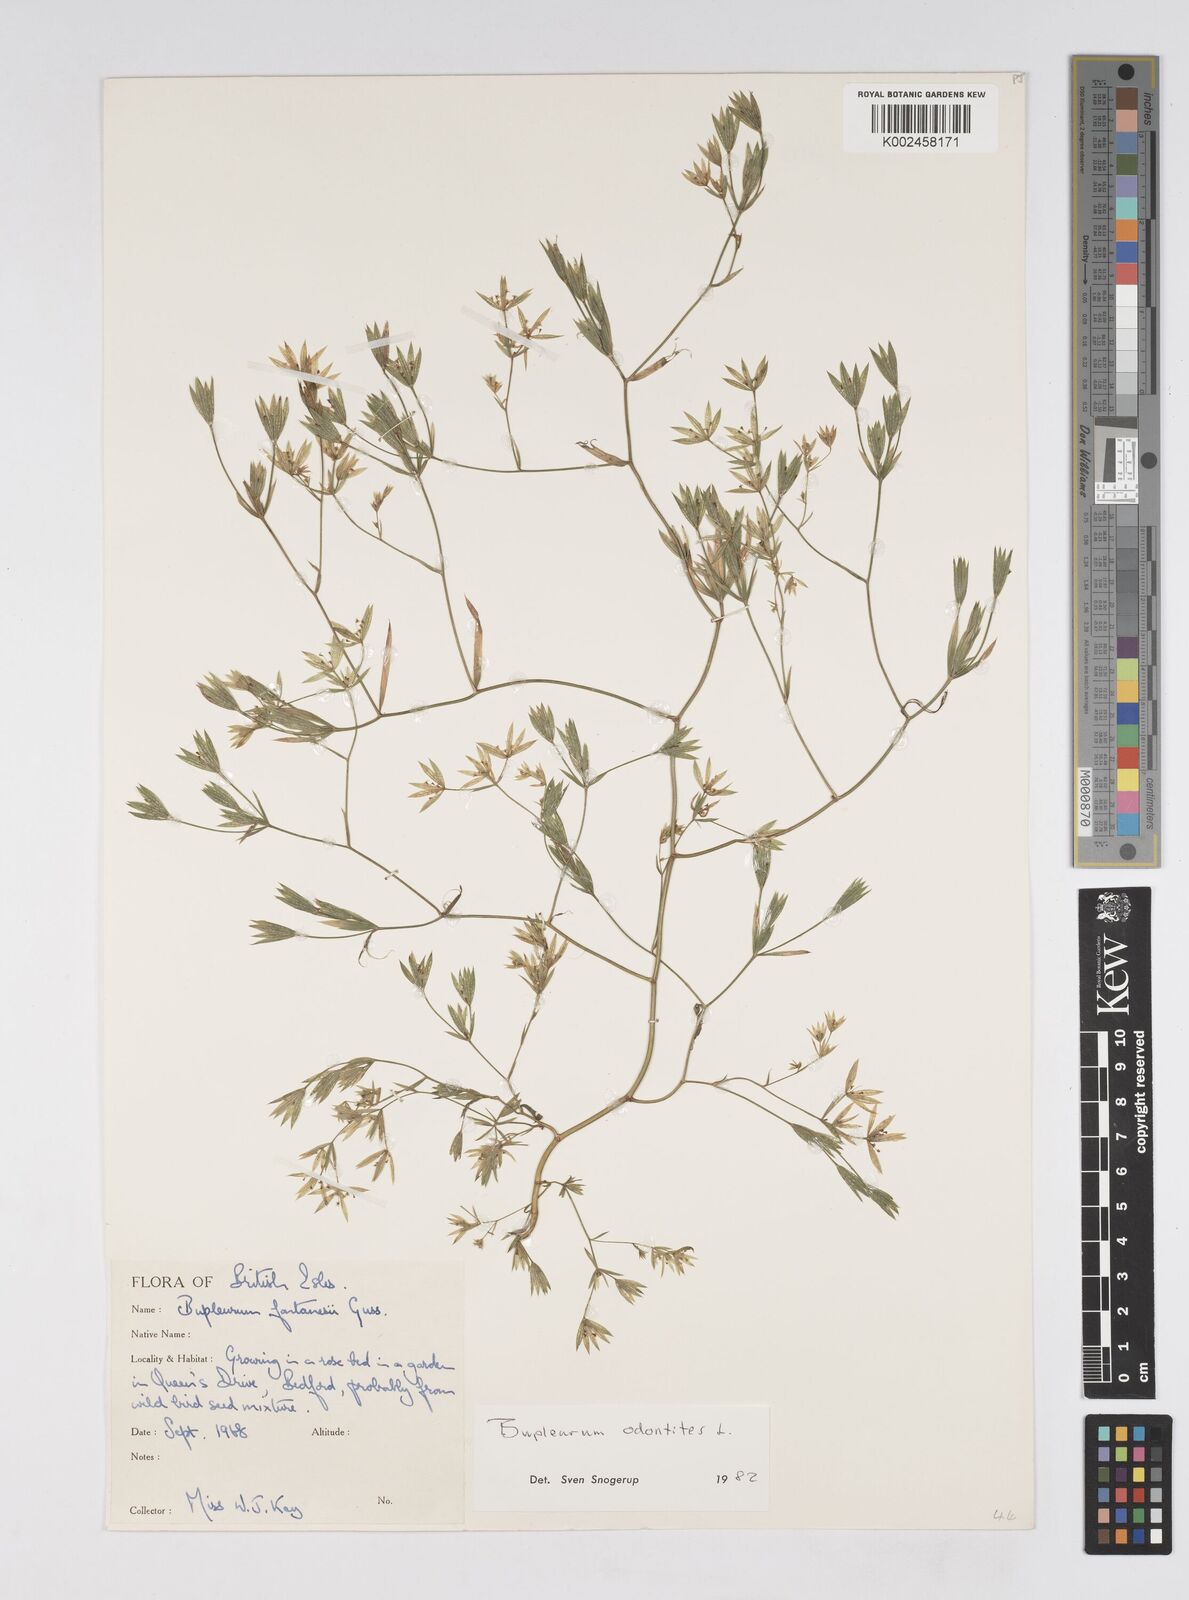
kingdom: Plantae
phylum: Tracheophyta
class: Magnoliopsida
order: Apiales
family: Apiaceae
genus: Bupleurum
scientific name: Bupleurum odontites
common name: Narrowleaf thorow wax
